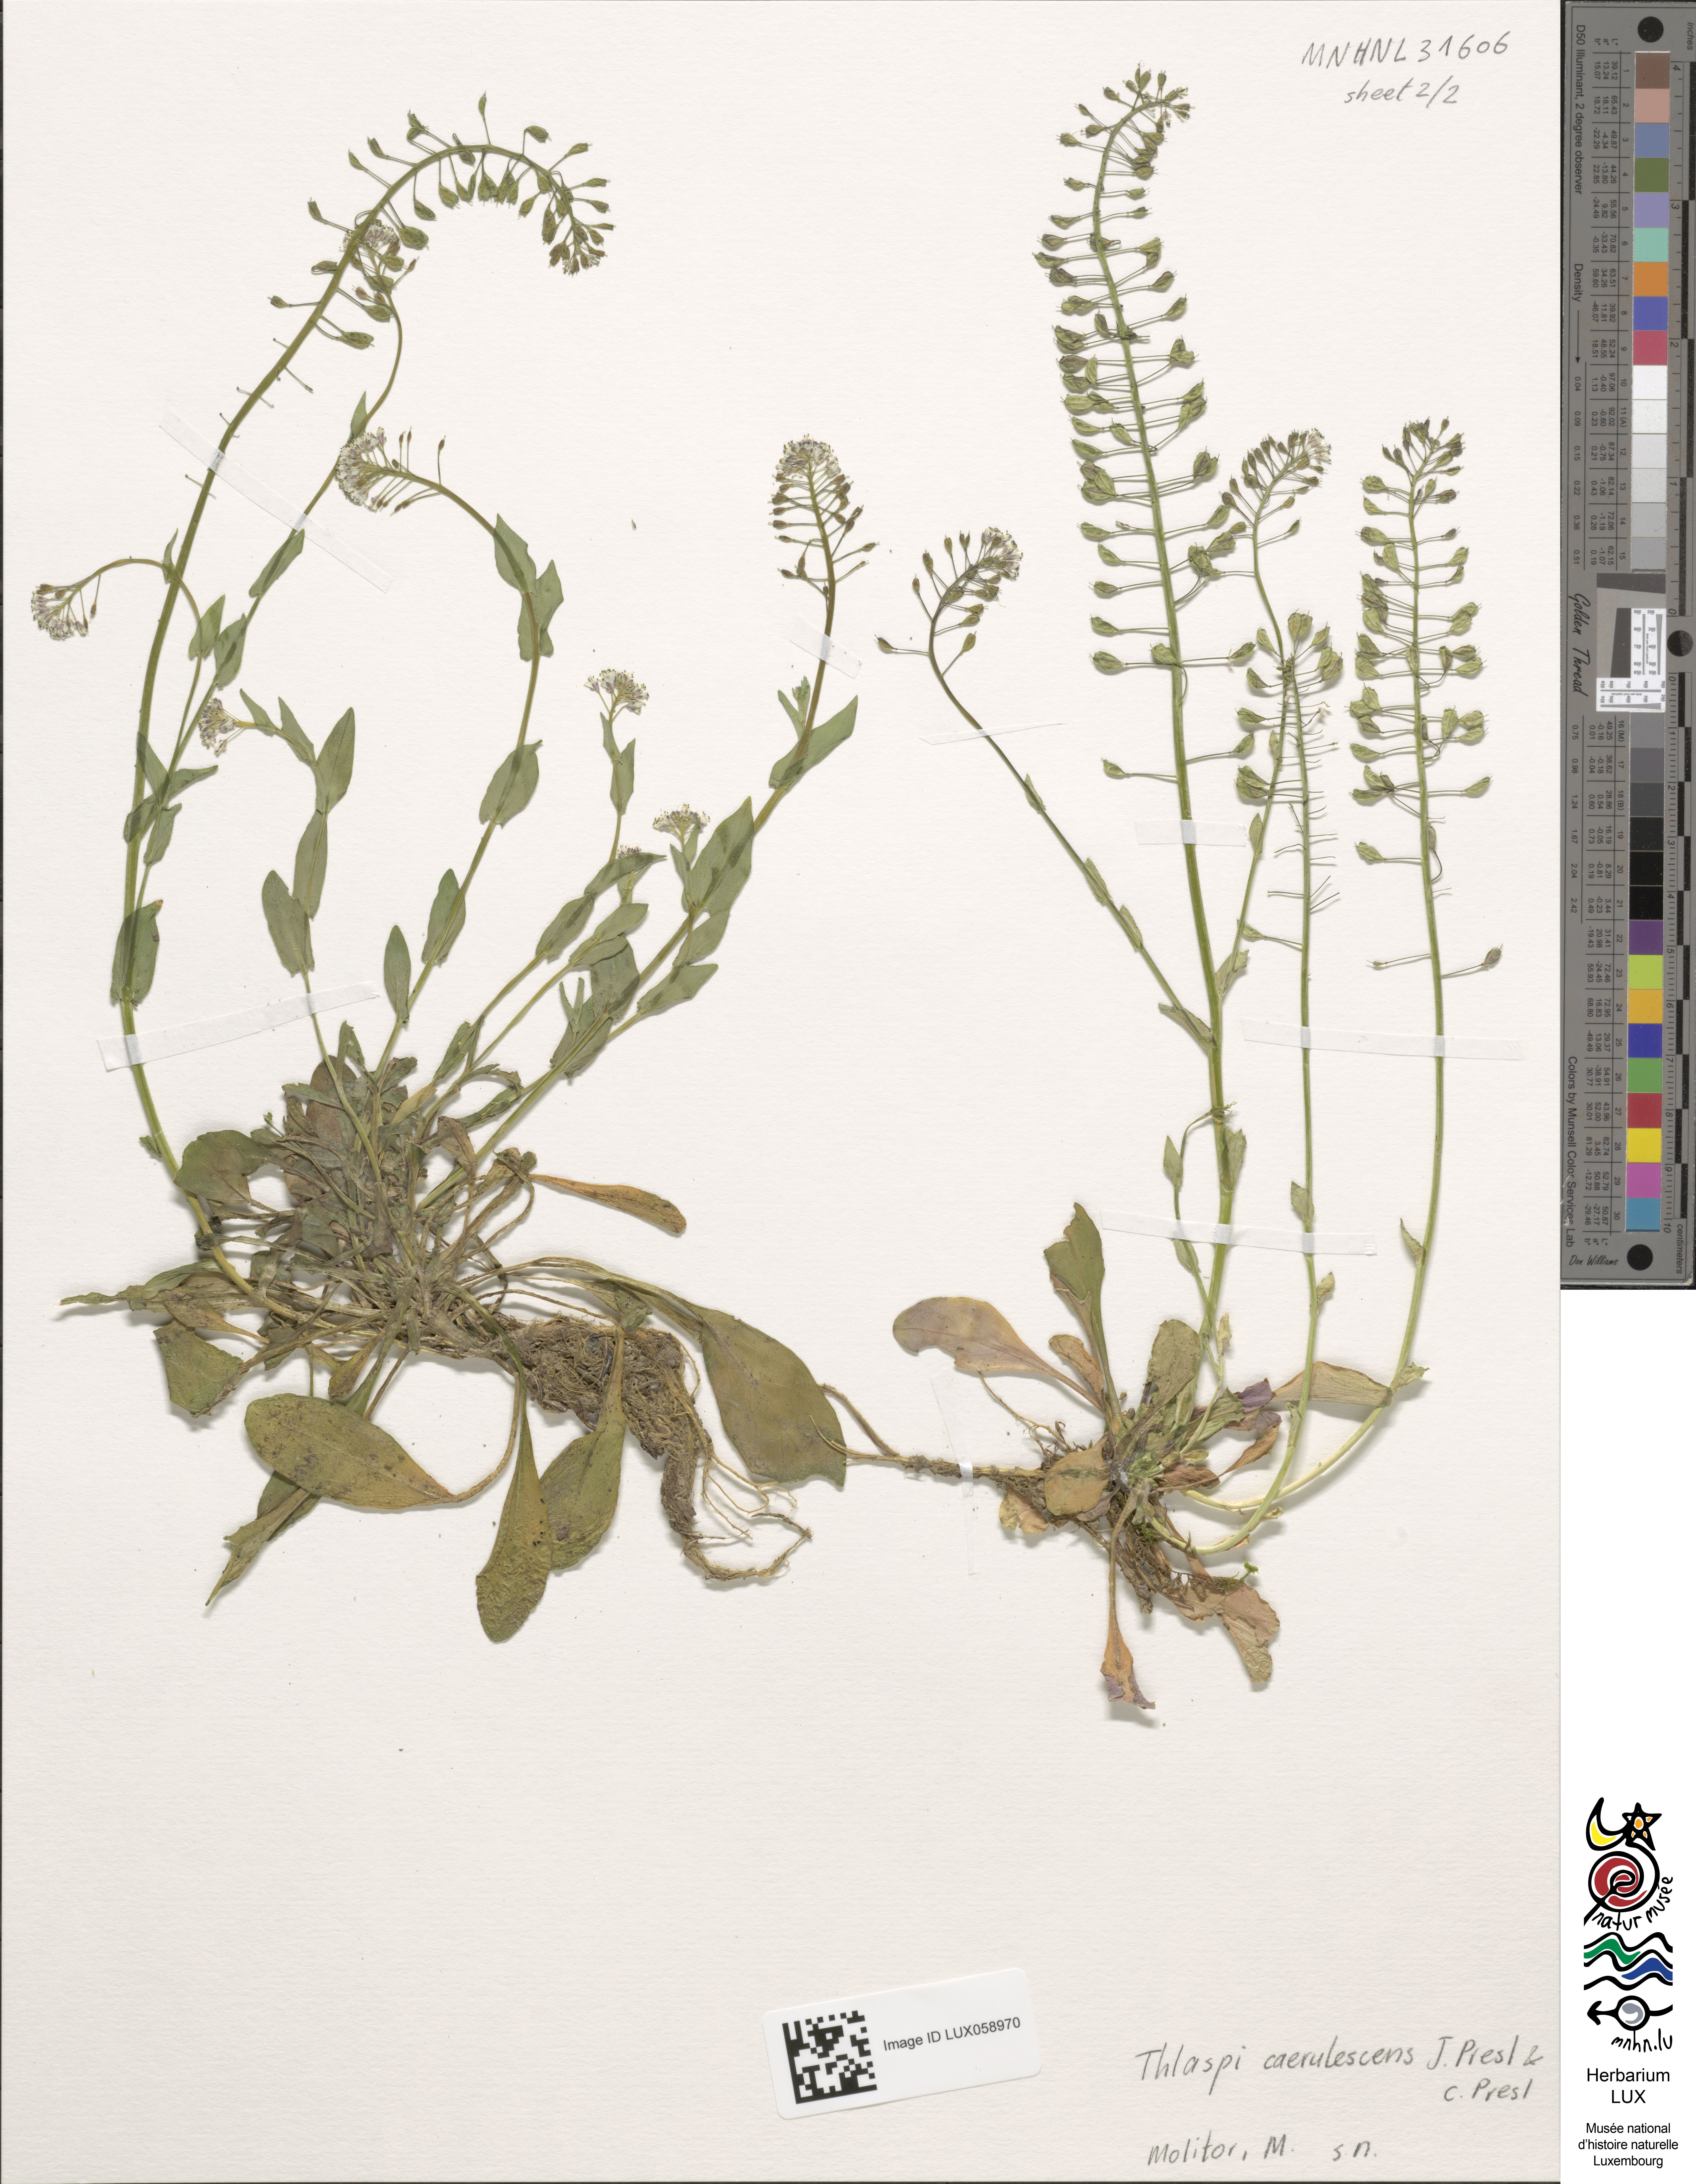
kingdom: Plantae
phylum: Tracheophyta
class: Magnoliopsida
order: Brassicales
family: Brassicaceae
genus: Noccaea
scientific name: Noccaea caerulescens
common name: Alpine pennycress
